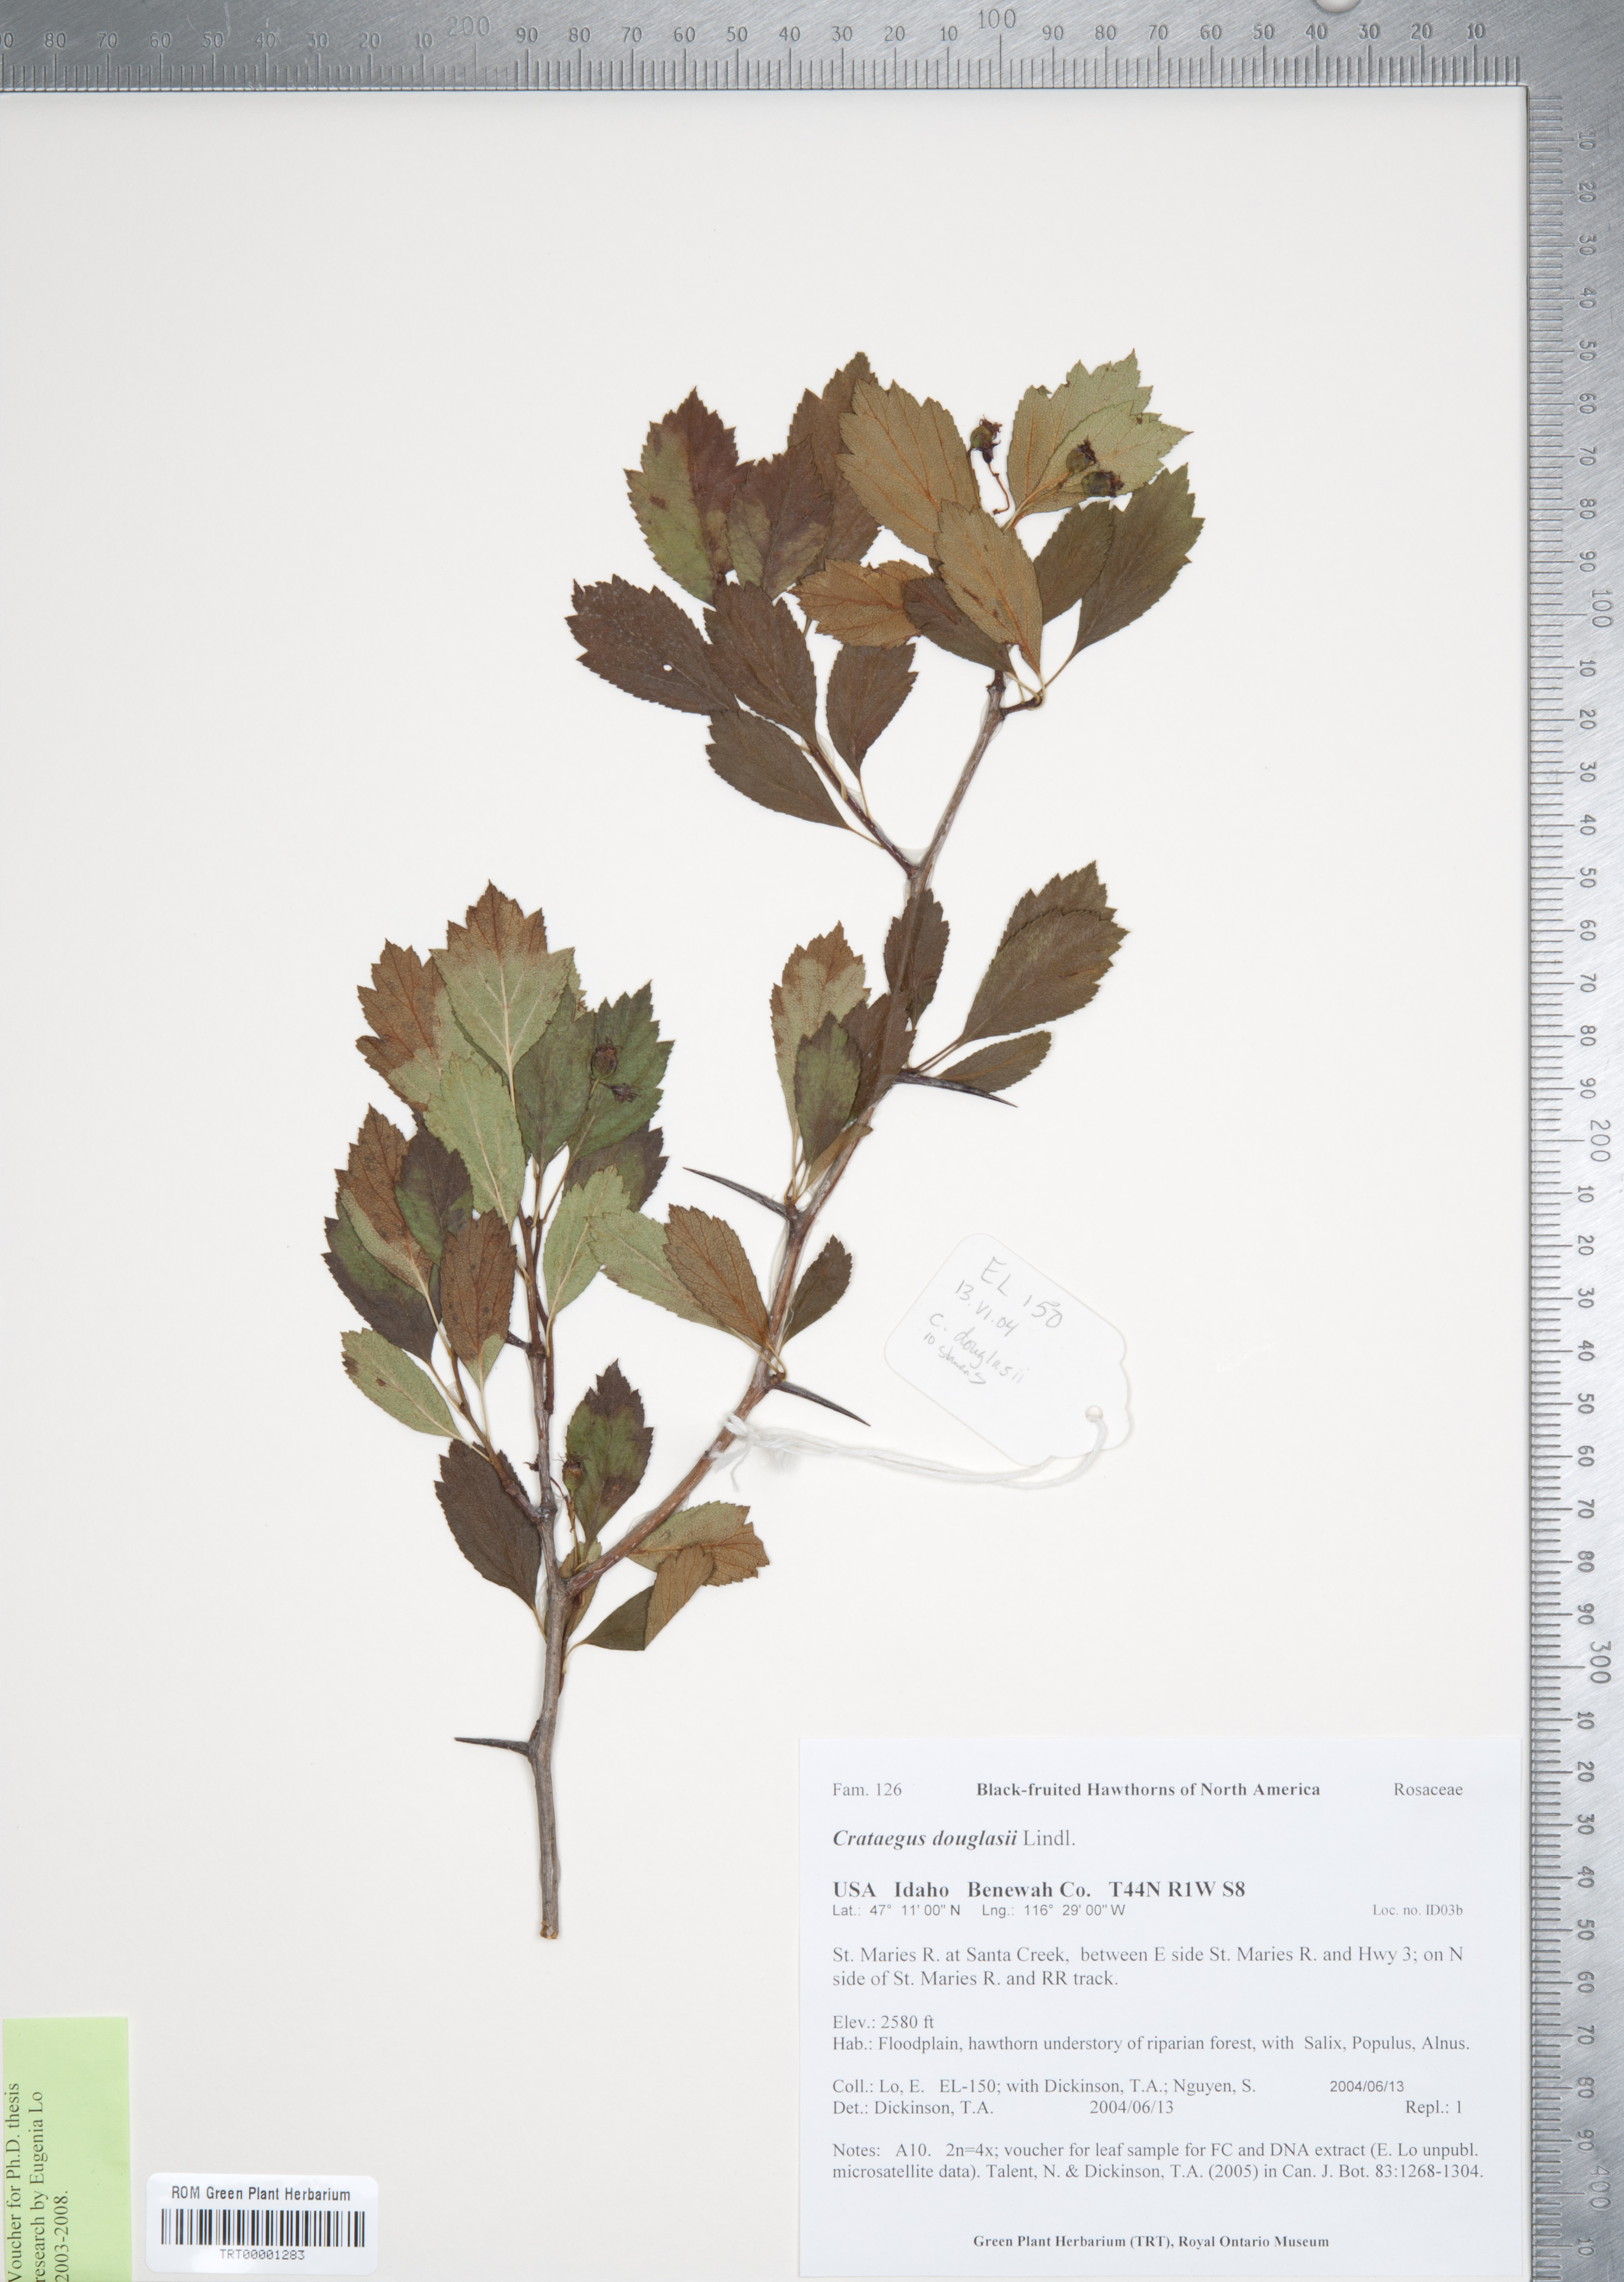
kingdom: Plantae
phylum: Tracheophyta
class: Magnoliopsida
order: Rosales
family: Rosaceae
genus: Crataegus
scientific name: Crataegus douglasii
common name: Black hawthorn
